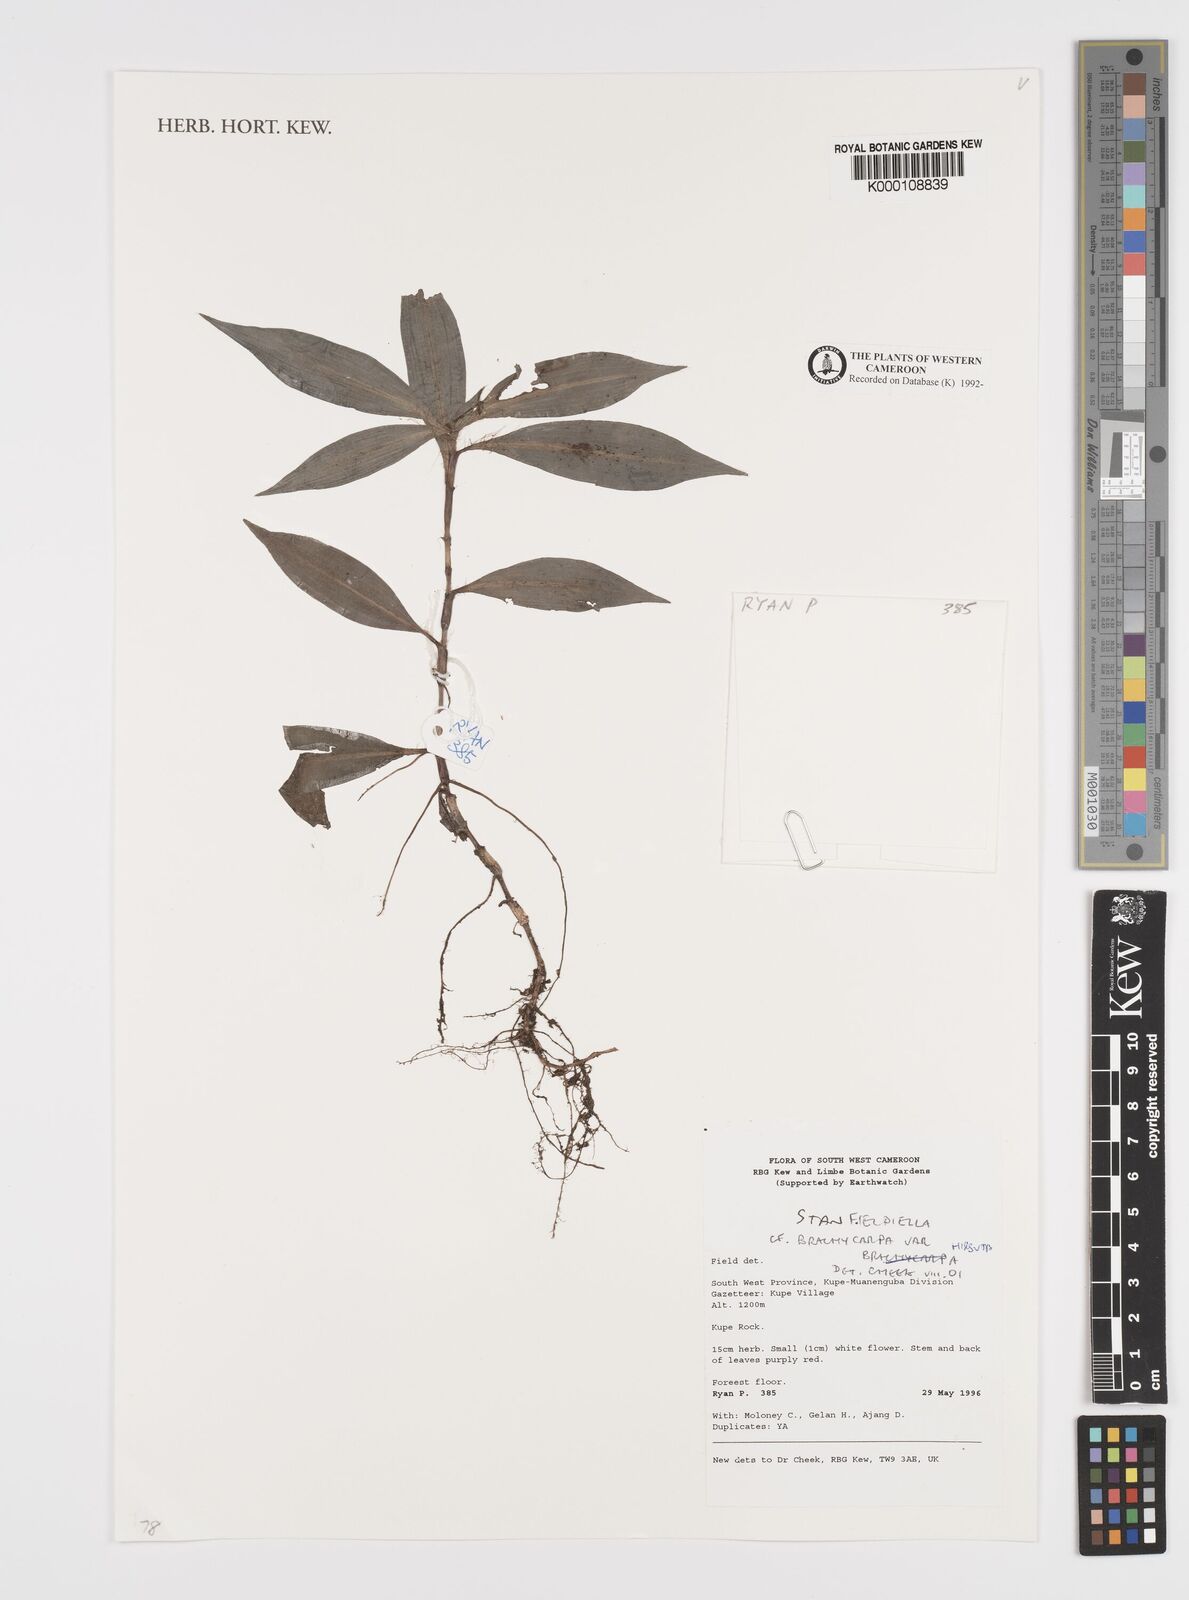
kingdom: Plantae
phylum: Tracheophyta
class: Liliopsida
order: Commelinales
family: Commelinaceae
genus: Stanfieldiella
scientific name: Stanfieldiella brachycarpa
